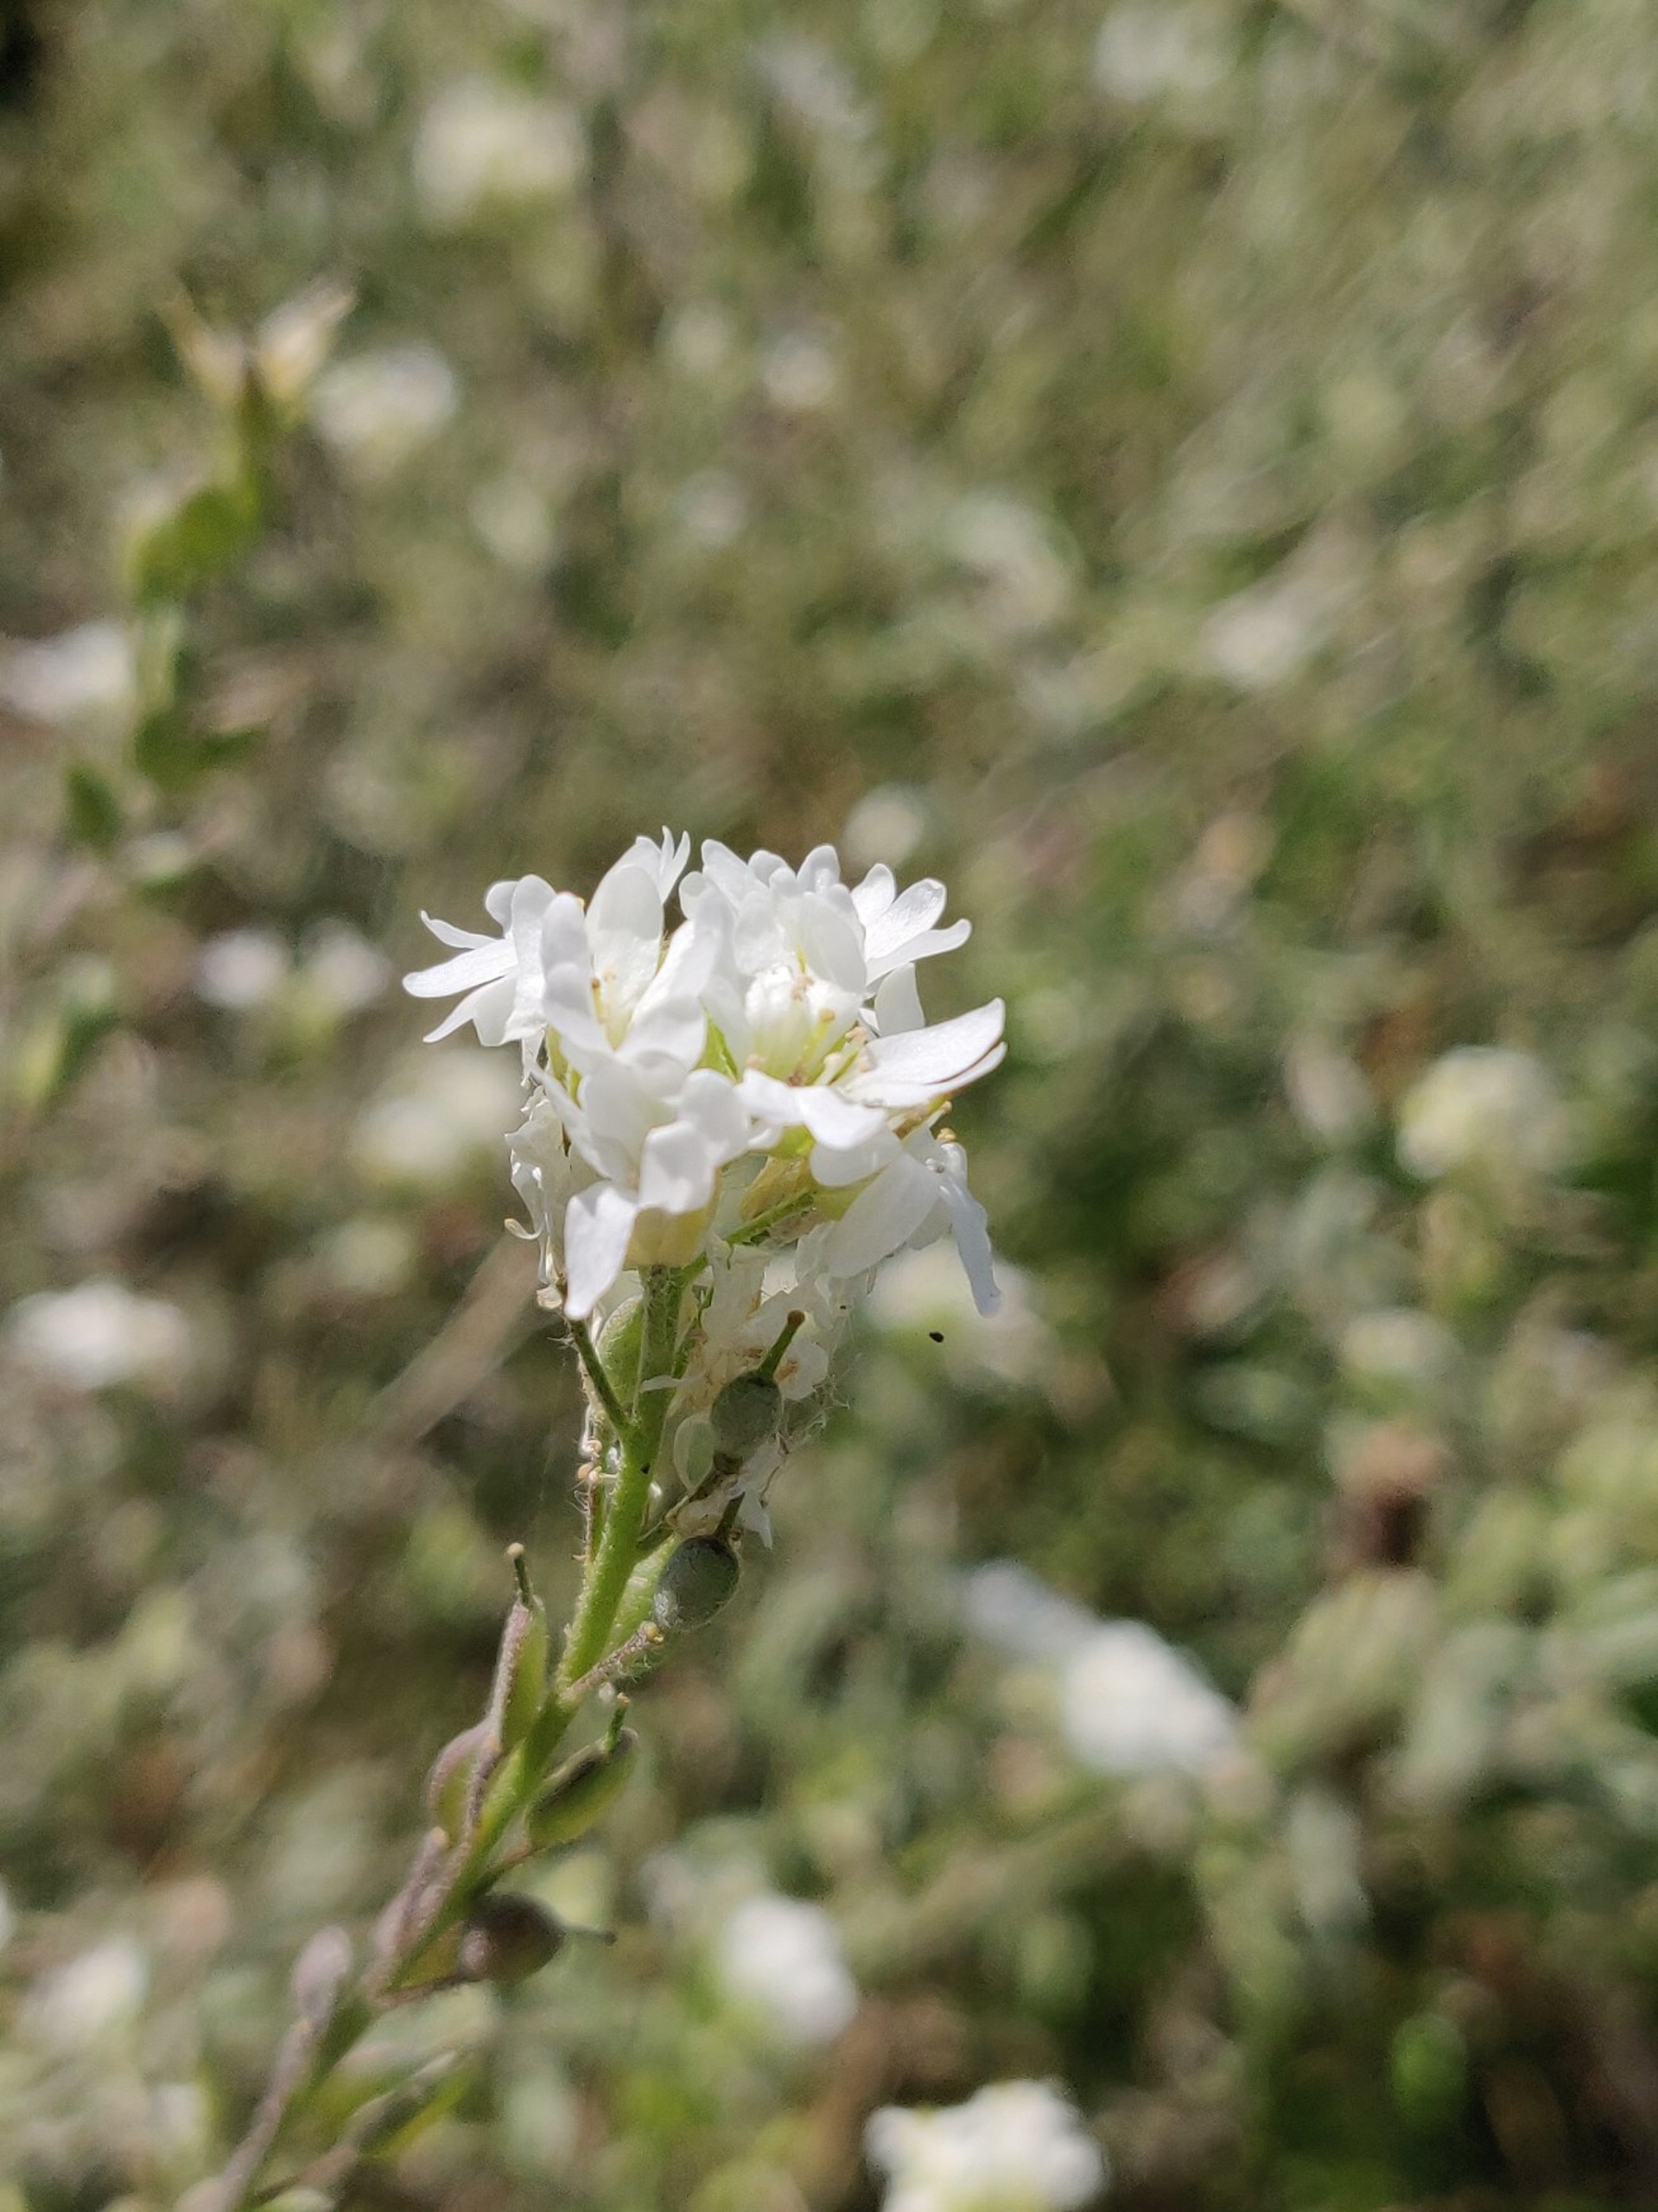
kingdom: Plantae
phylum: Tracheophyta
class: Magnoliopsida
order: Brassicales
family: Brassicaceae
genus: Berteroa
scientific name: Berteroa incana
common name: Kløvplade
